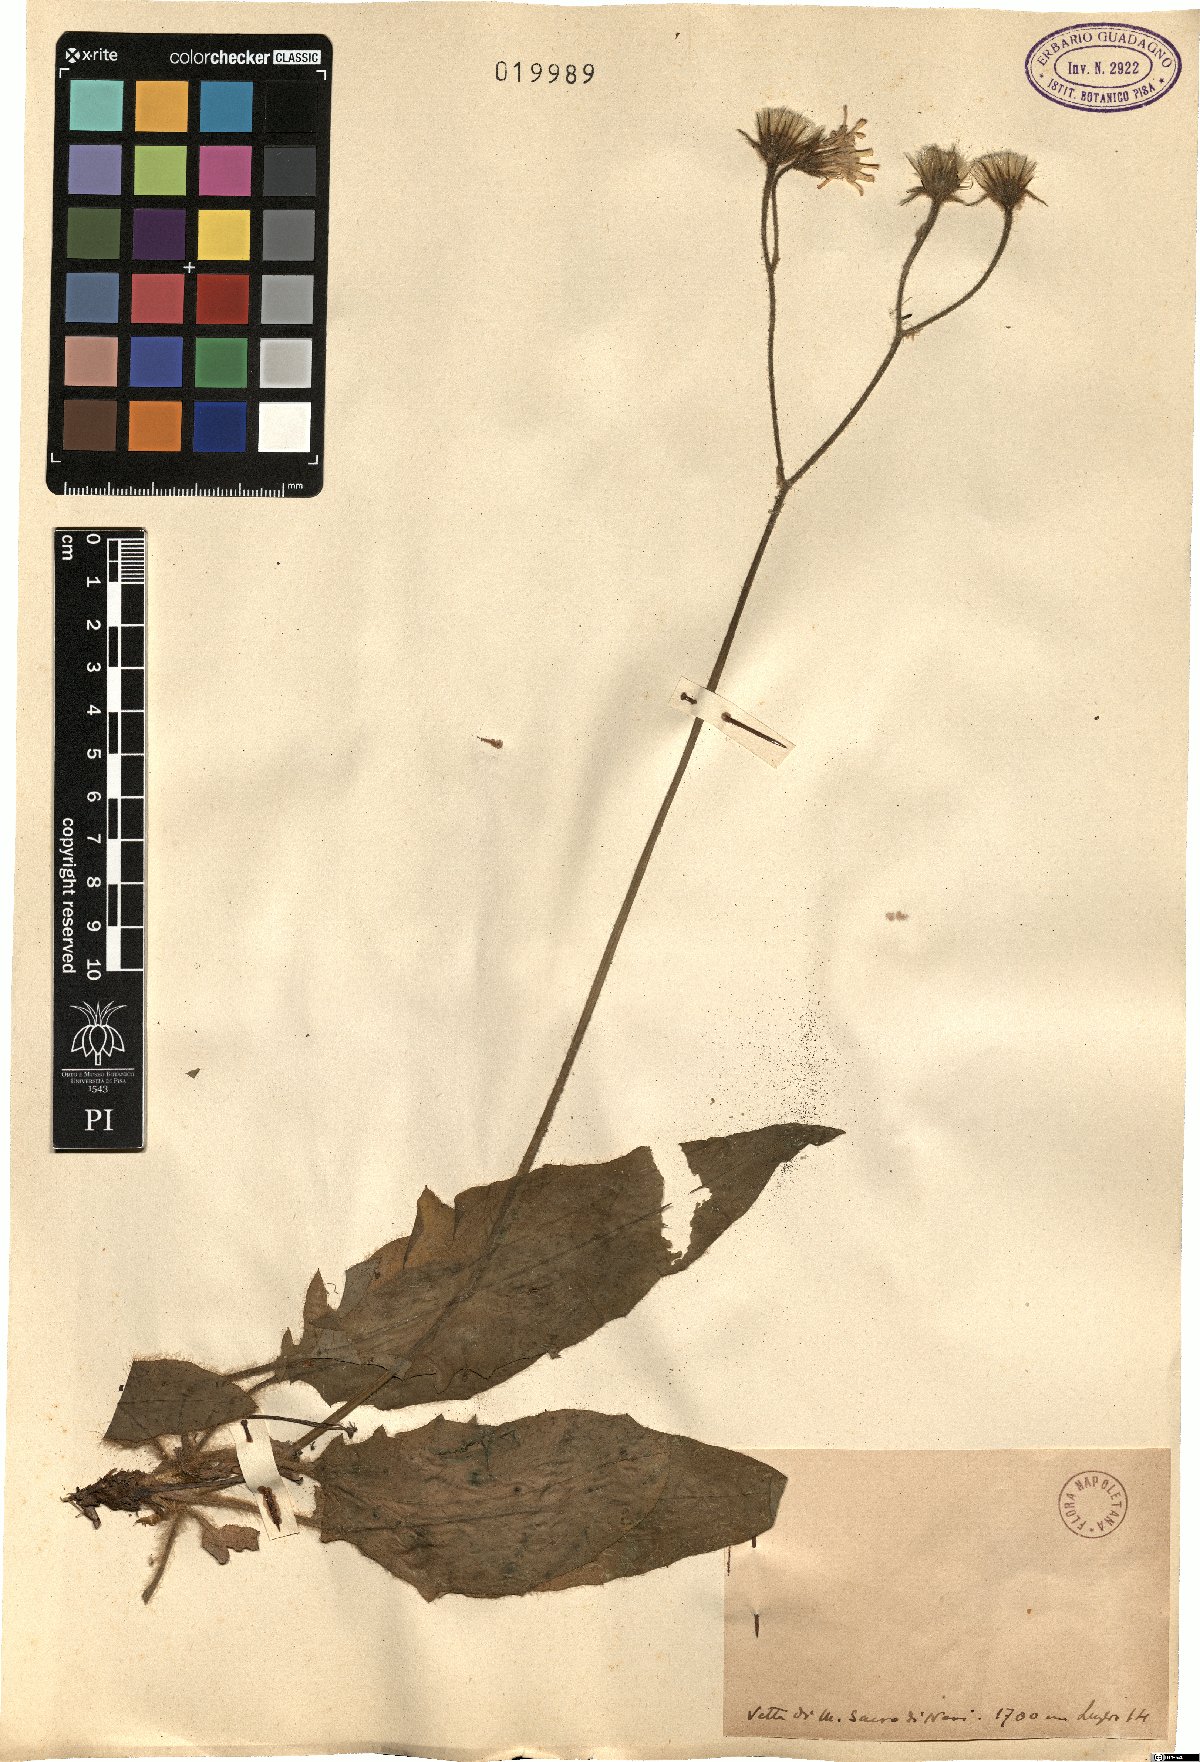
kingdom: Plantae
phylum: Tracheophyta
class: Magnoliopsida
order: Asterales
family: Asteraceae
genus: Hieracium
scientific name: Hieracium
